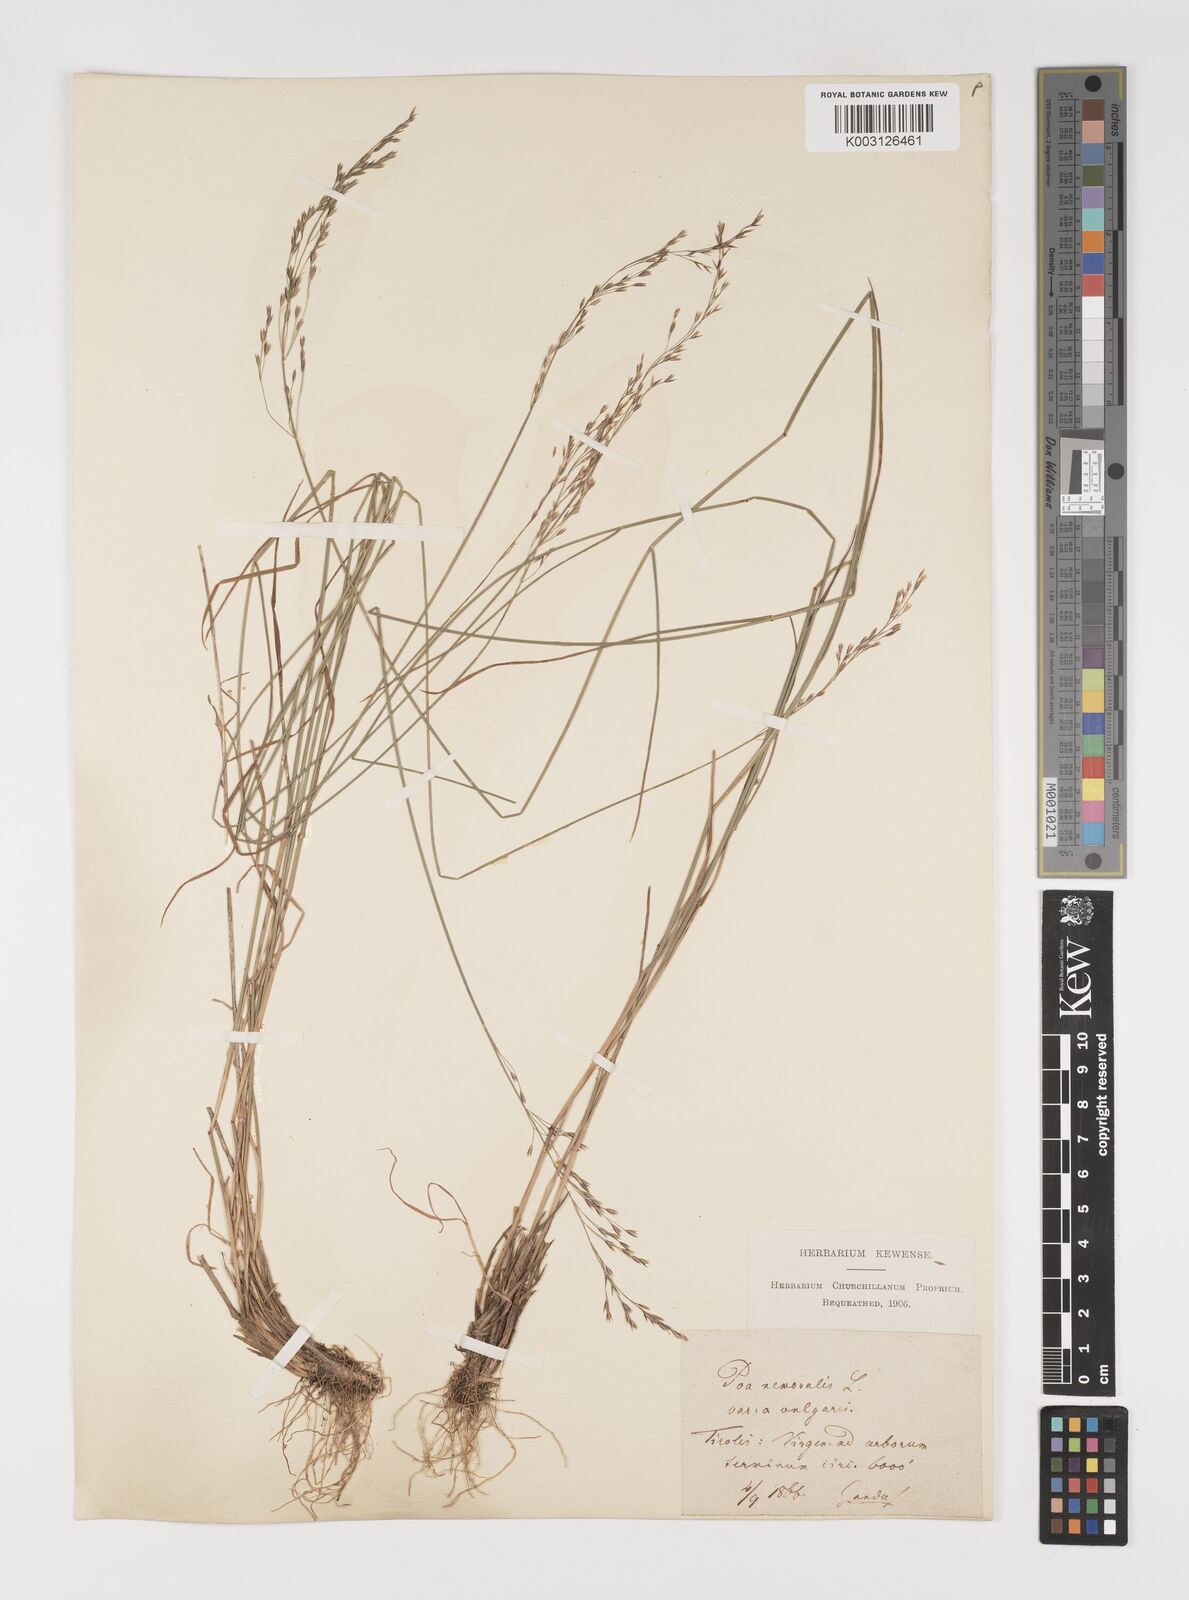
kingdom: Plantae
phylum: Tracheophyta
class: Liliopsida
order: Poales
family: Poaceae
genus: Poa
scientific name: Poa nemoralis
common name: Wood bluegrass
